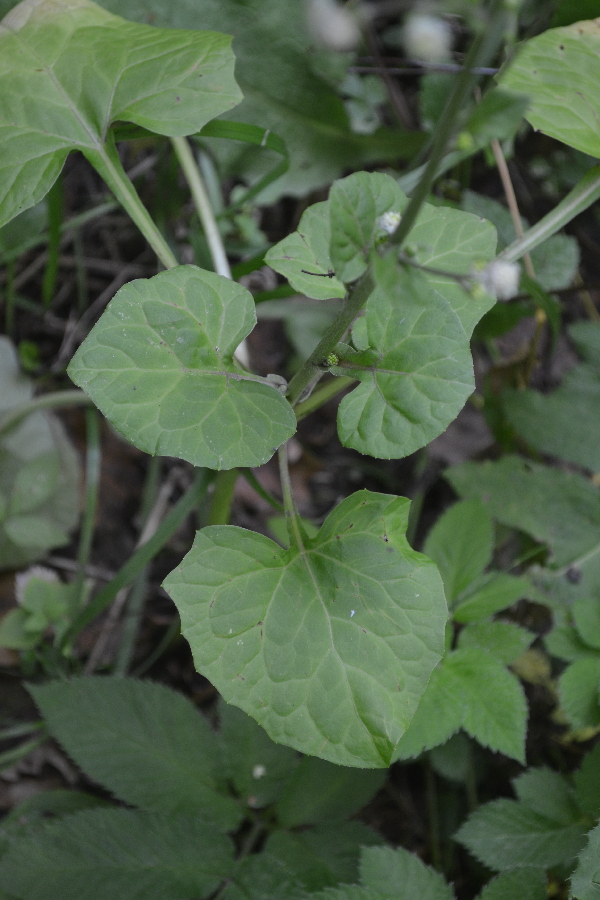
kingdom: Plantae
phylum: Tracheophyta
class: Magnoliopsida
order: Asterales
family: Asteraceae
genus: Adenocaulon
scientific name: Adenocaulon himalaicum
